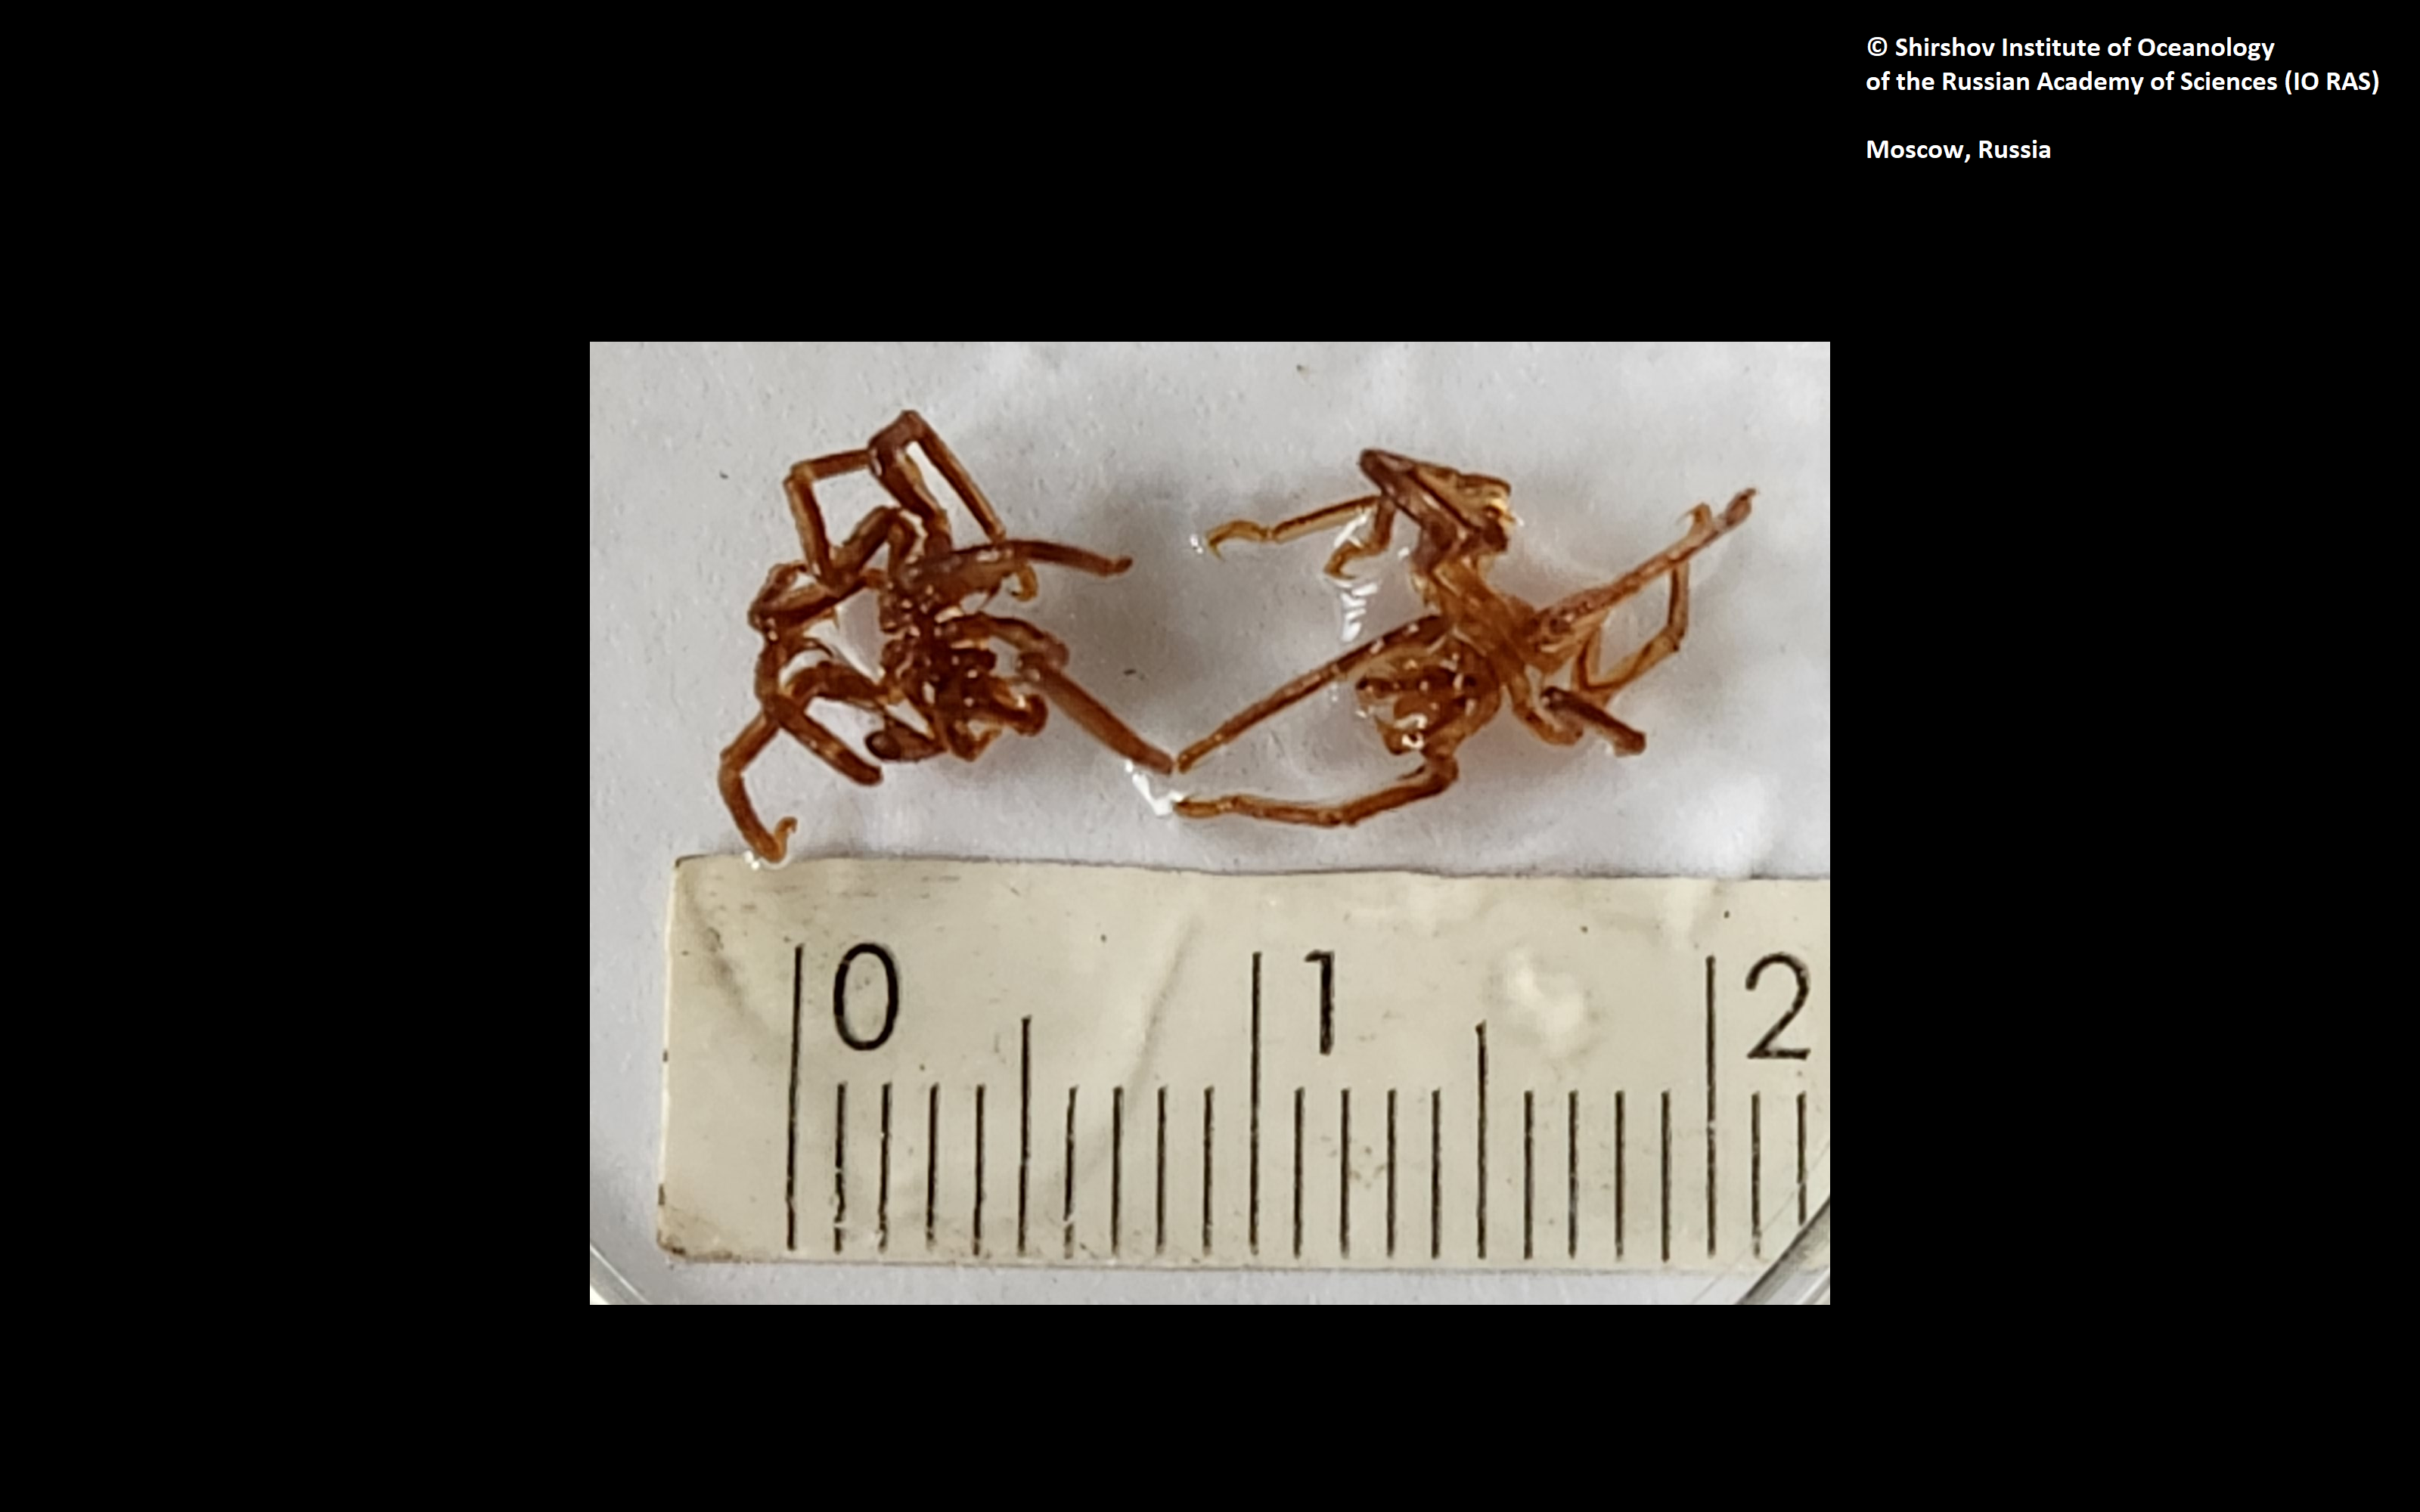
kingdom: Animalia
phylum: Arthropoda
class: Pycnogonida
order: Pantopoda
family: Nymphonidae
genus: Nymphon
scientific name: Nymphon kurilocompactum
